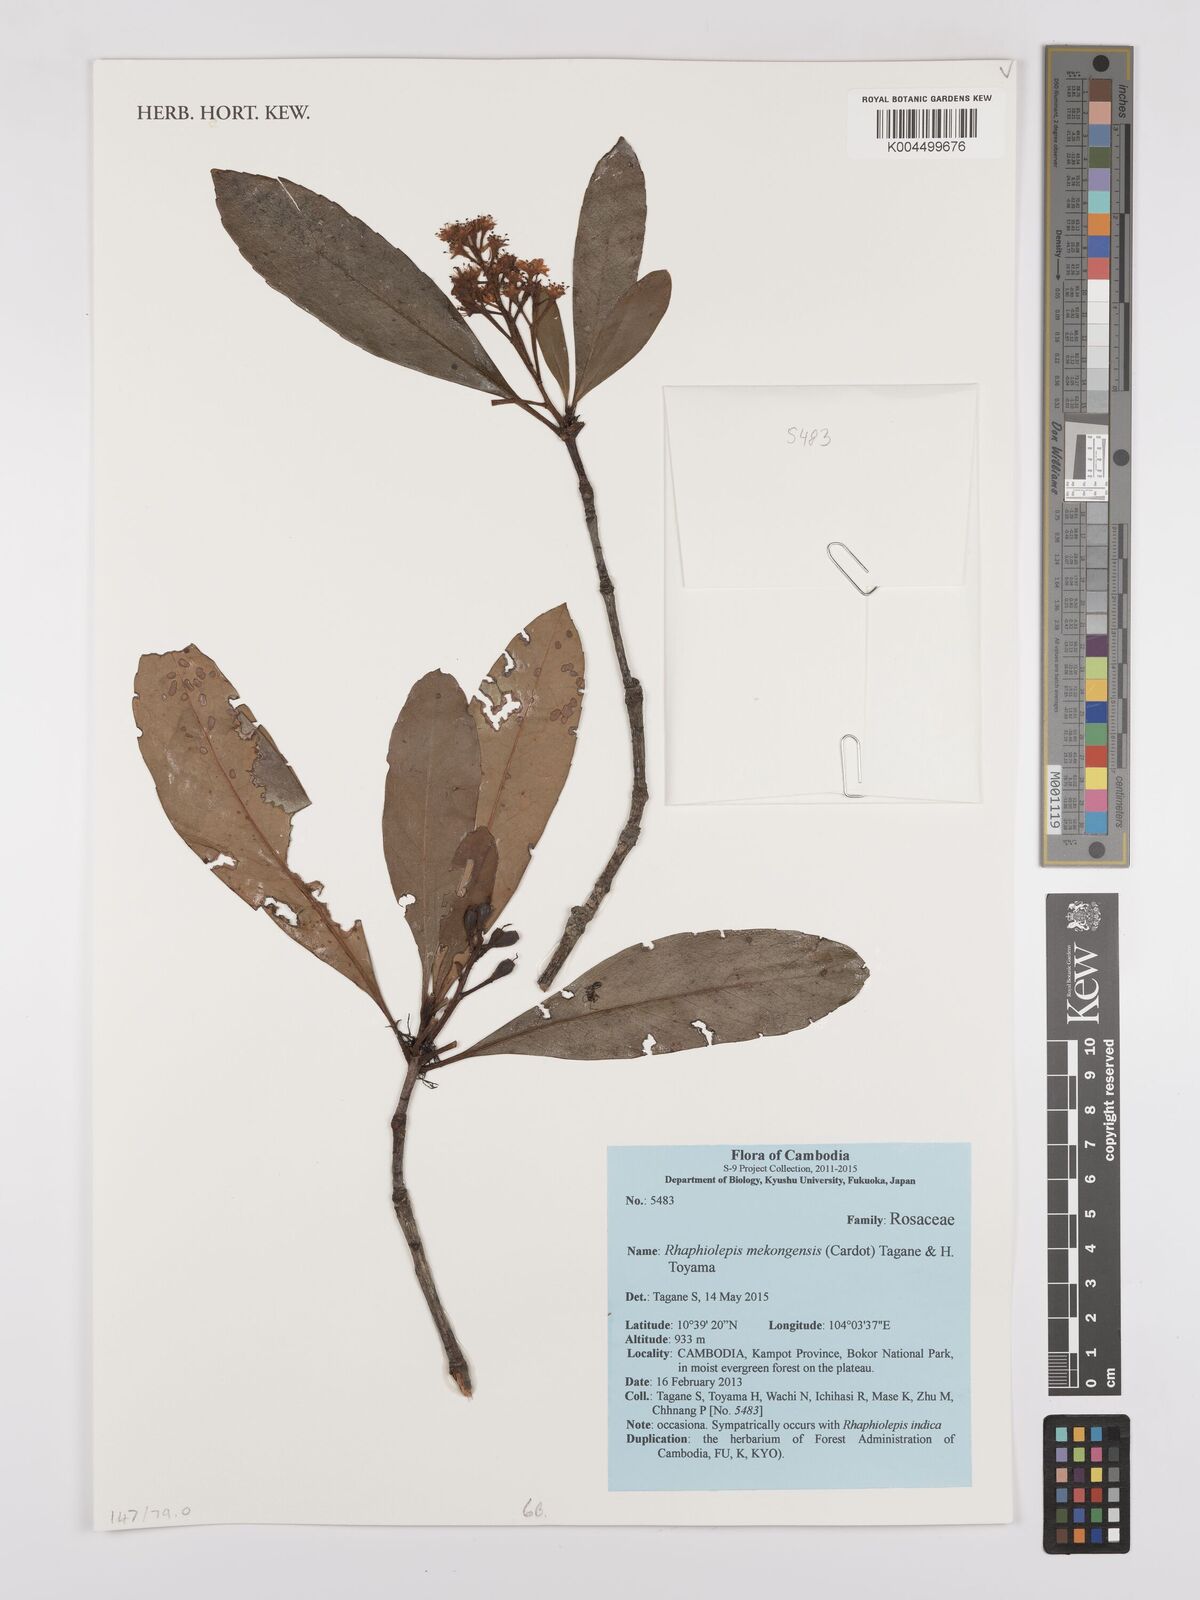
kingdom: Plantae
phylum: Tracheophyta
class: Magnoliopsida
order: Rosales
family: Rosaceae
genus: Rhaphiolepis
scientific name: Rhaphiolepis indica
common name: India-hawthorn
